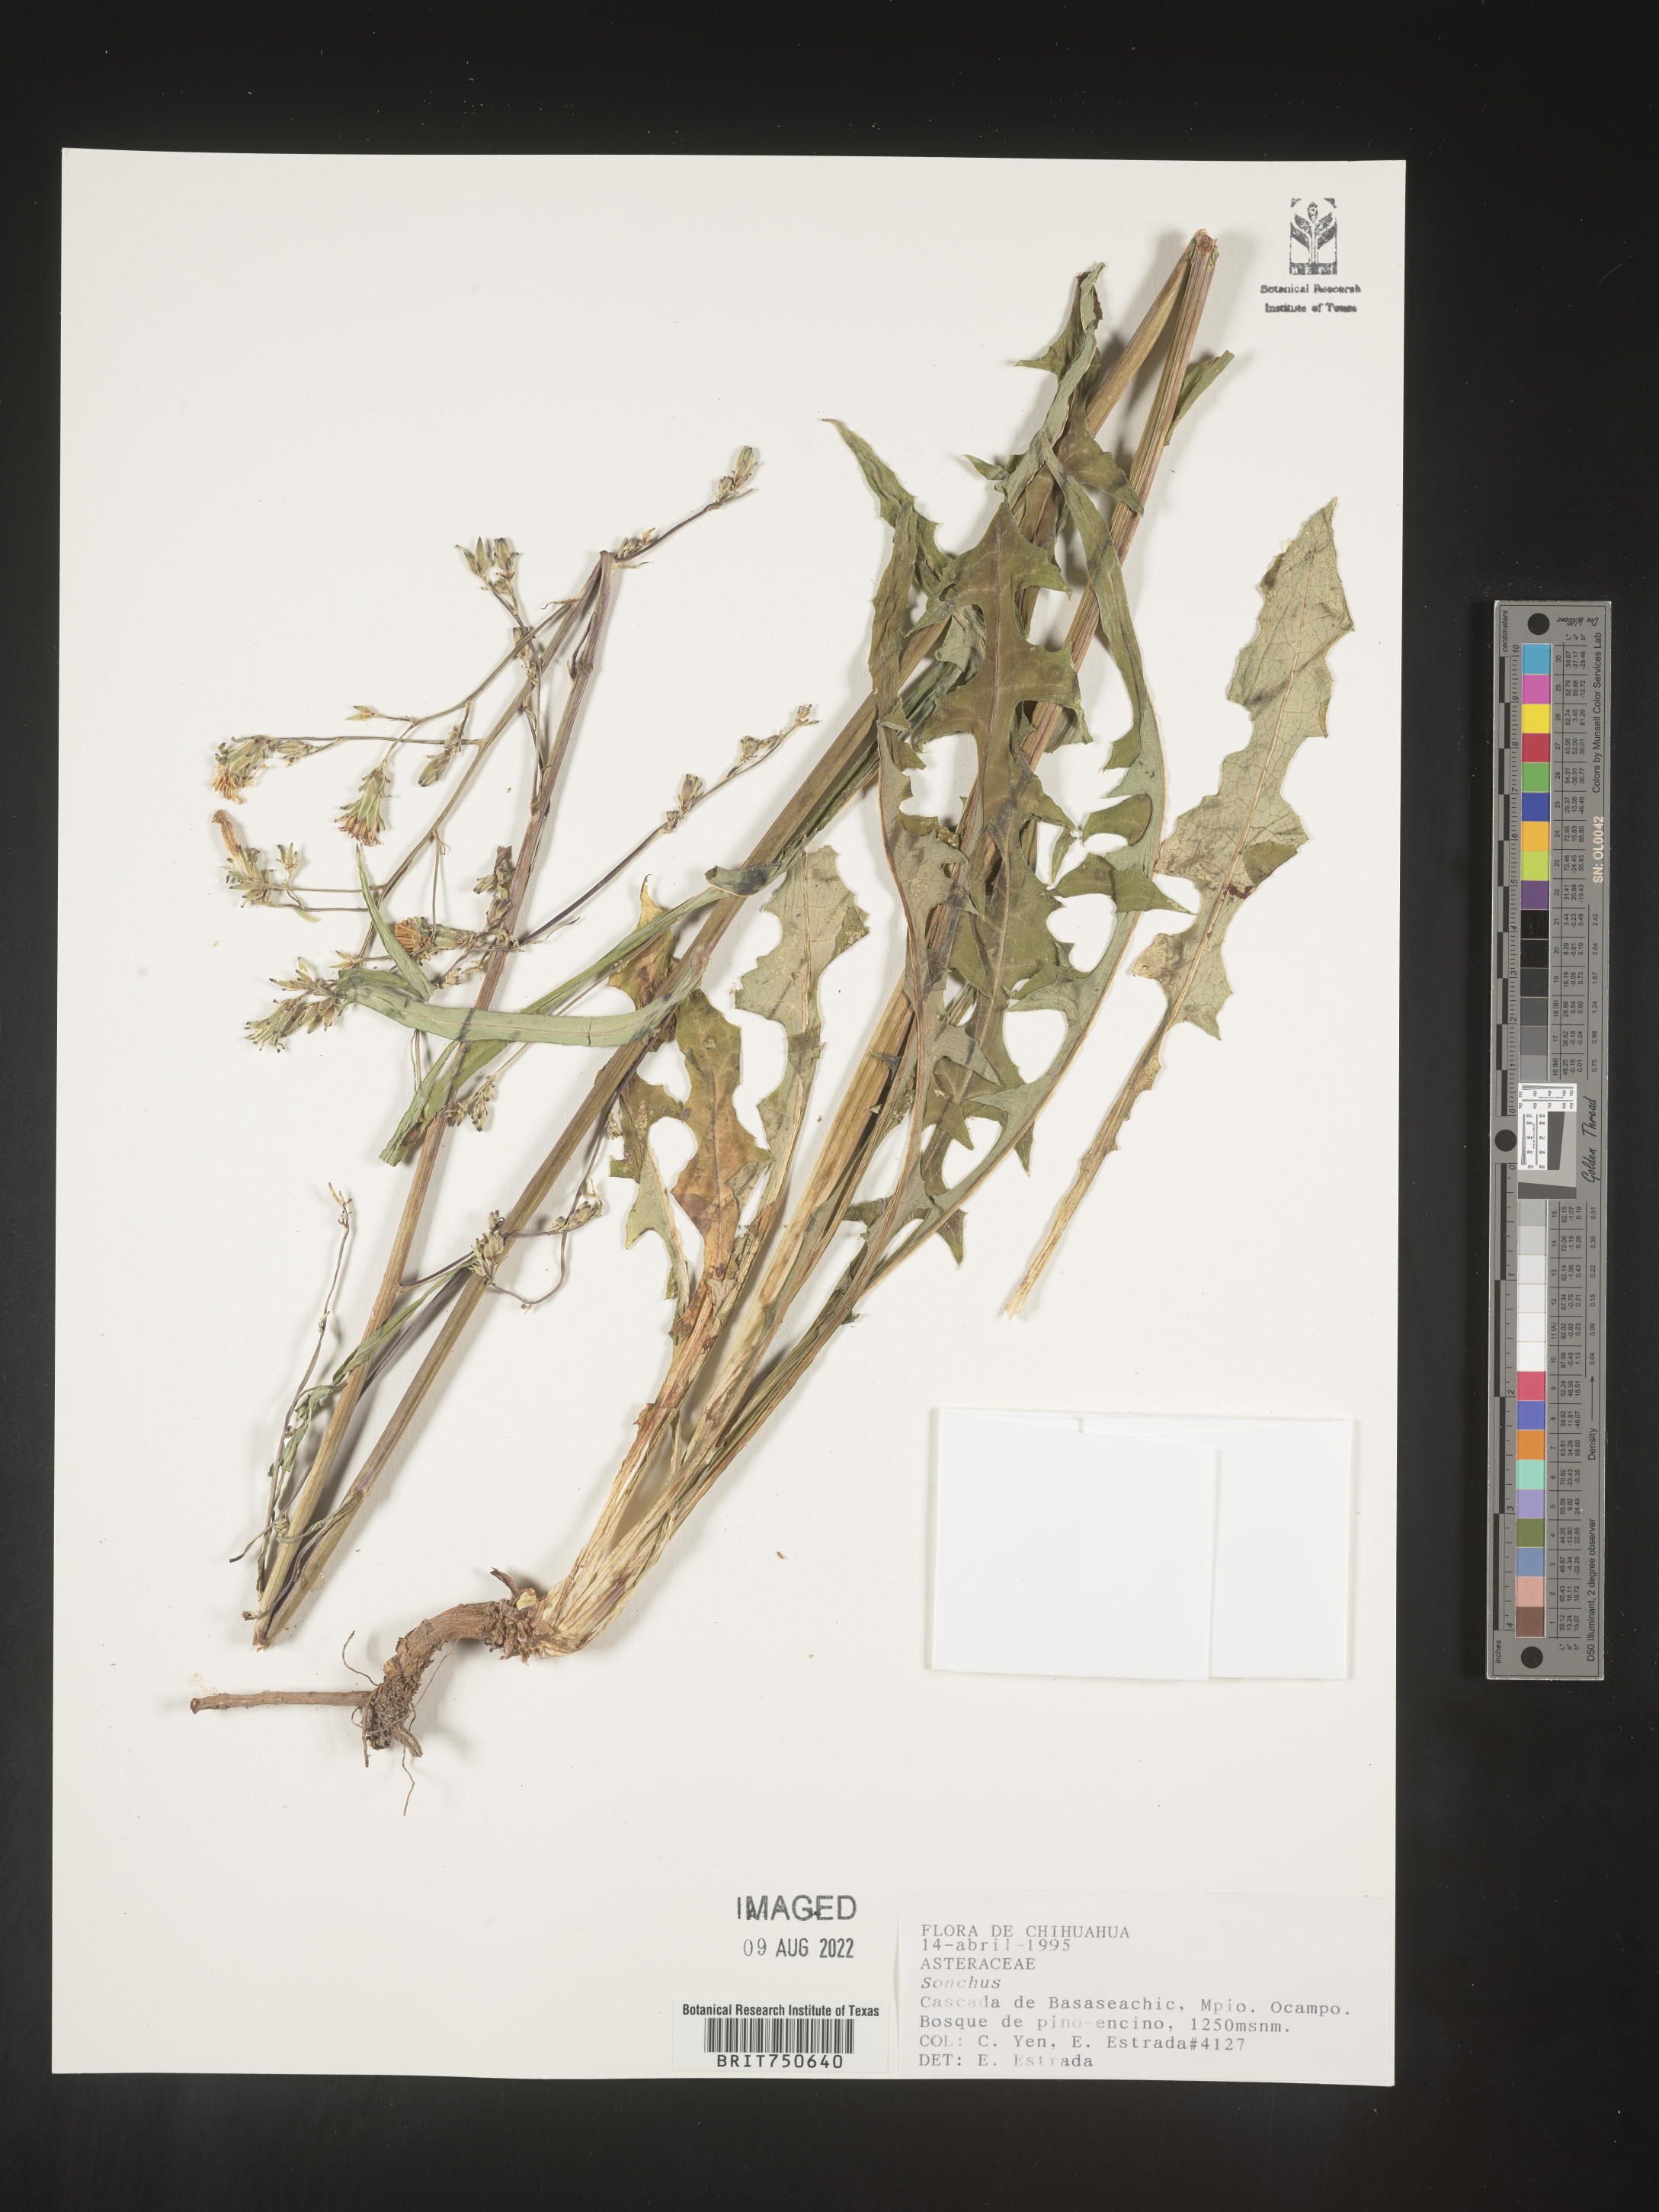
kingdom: Plantae
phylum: Tracheophyta
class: Magnoliopsida
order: Asterales
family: Asteraceae
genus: Sonchus
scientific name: Sonchus
